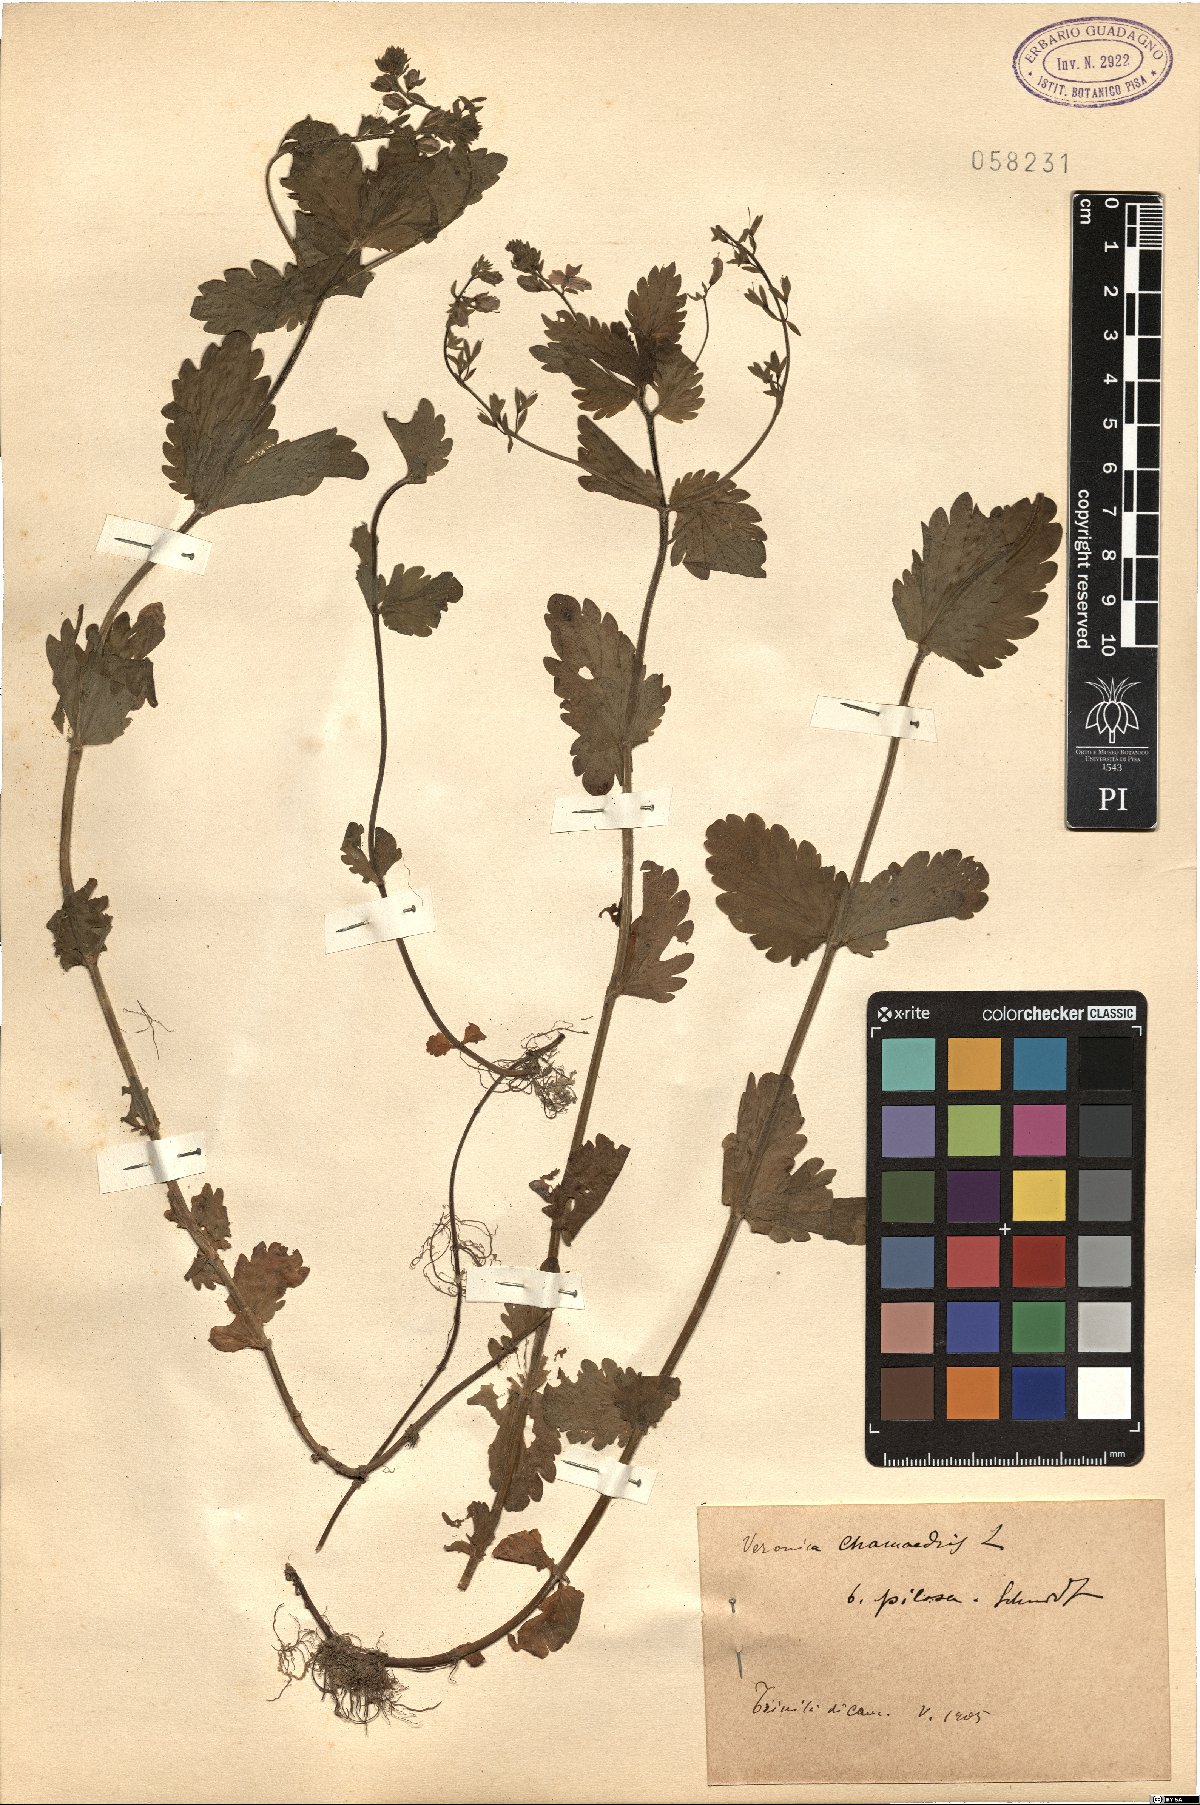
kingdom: Plantae
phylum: Tracheophyta
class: Magnoliopsida
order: Lamiales
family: Plantaginaceae
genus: Veronica
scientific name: Veronica chamaedrys
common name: Germander speedwell
